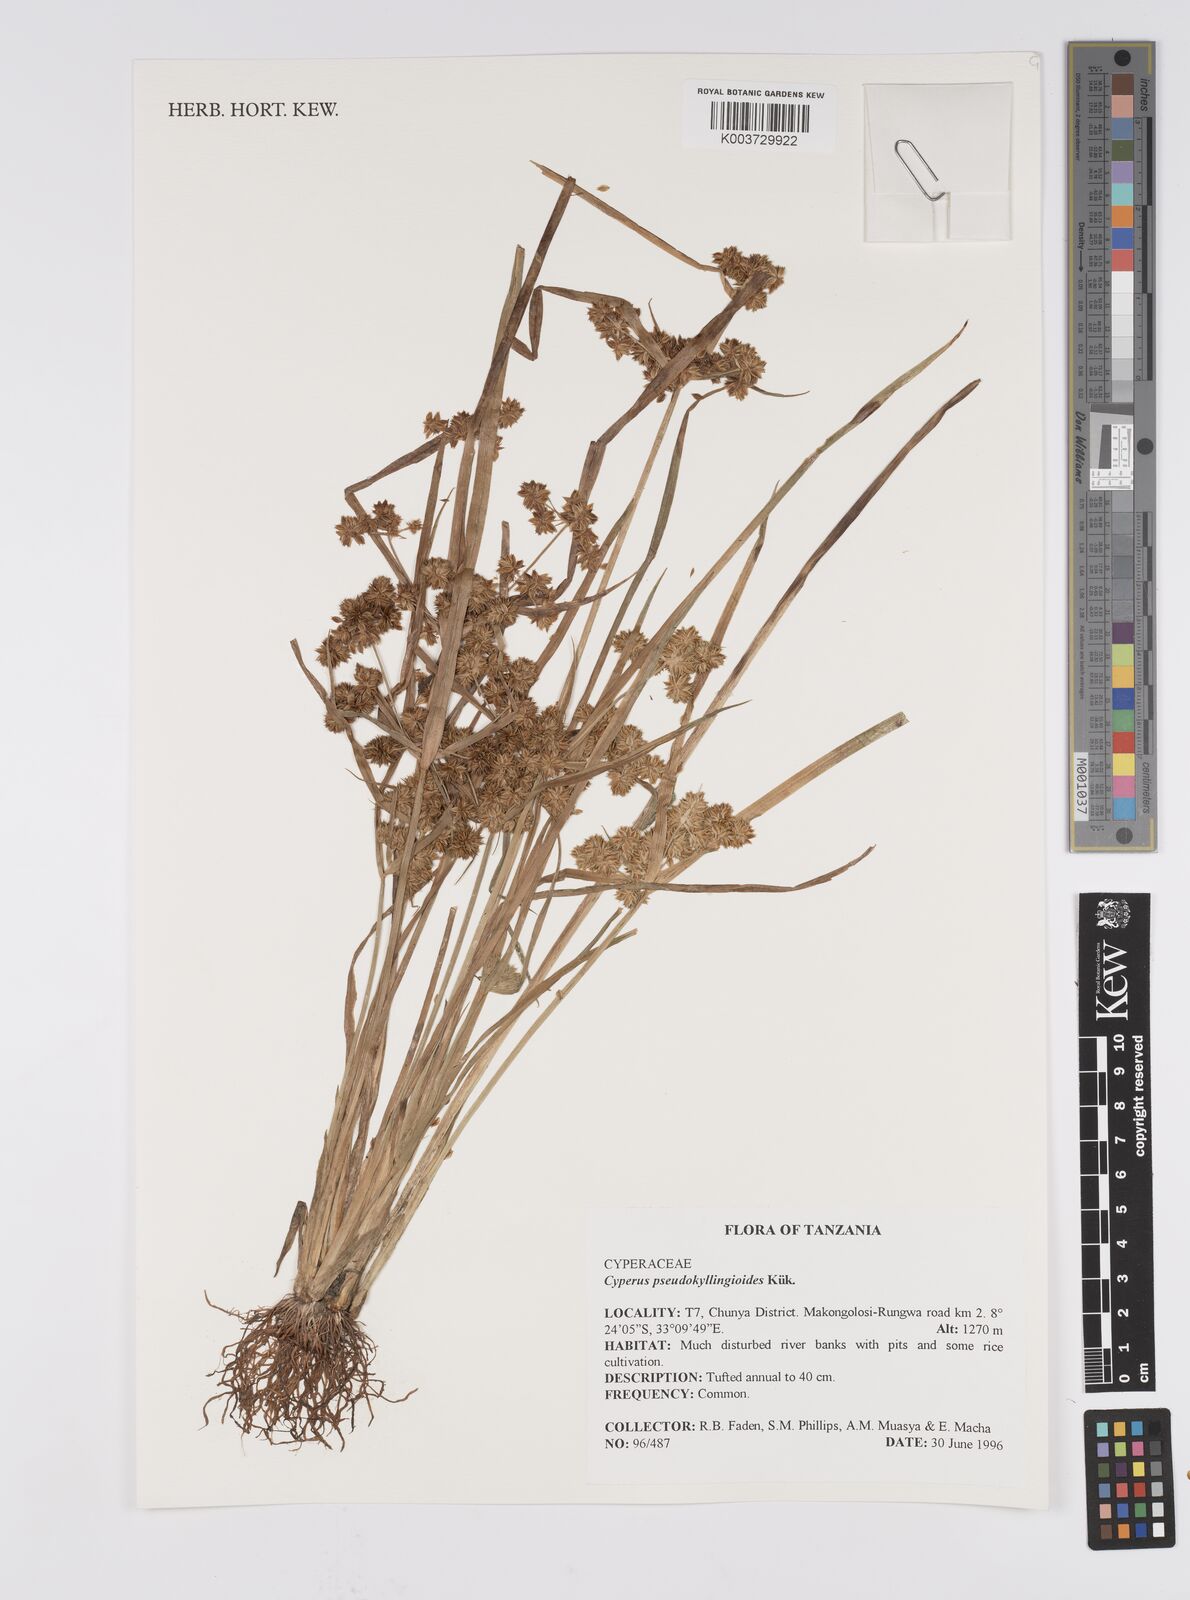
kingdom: Plantae
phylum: Tracheophyta
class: Liliopsida
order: Poales
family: Cyperaceae
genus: Cyperus
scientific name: Cyperus pseudokyllingioides
